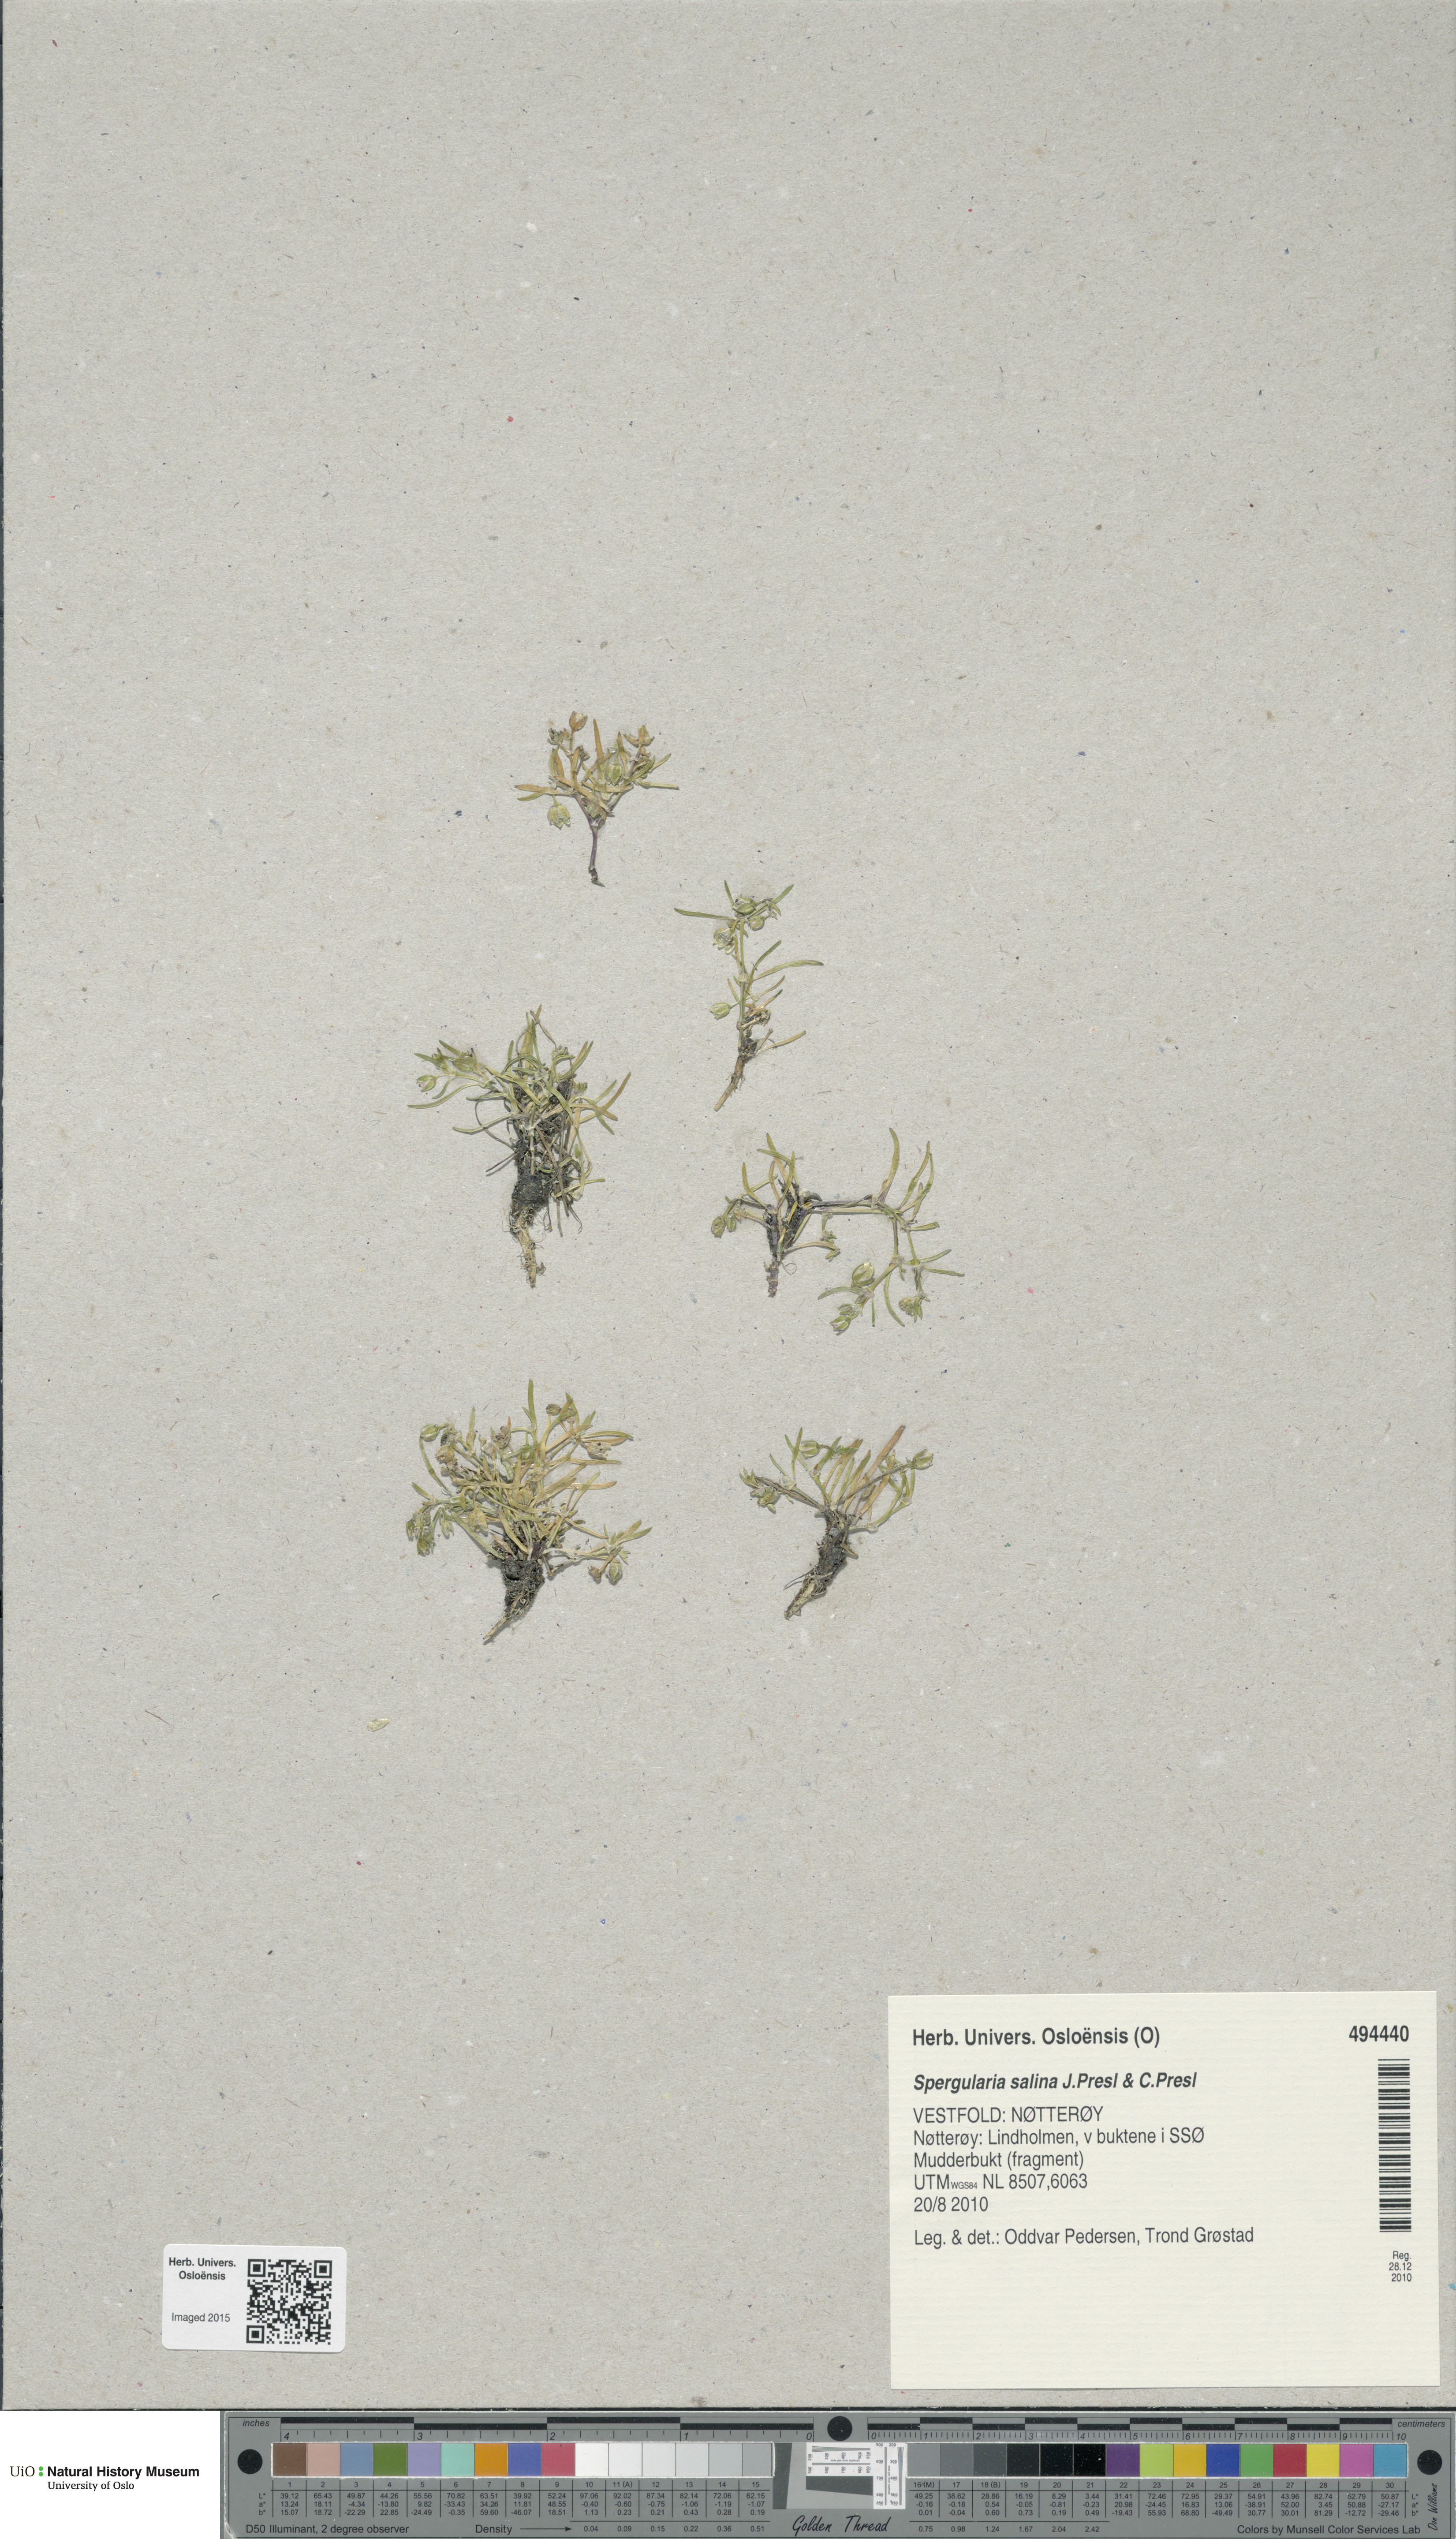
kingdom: Plantae
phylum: Tracheophyta
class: Magnoliopsida
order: Caryophyllales
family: Caryophyllaceae
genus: Spergularia
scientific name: Spergularia marina
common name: Lesser sea-spurrey
